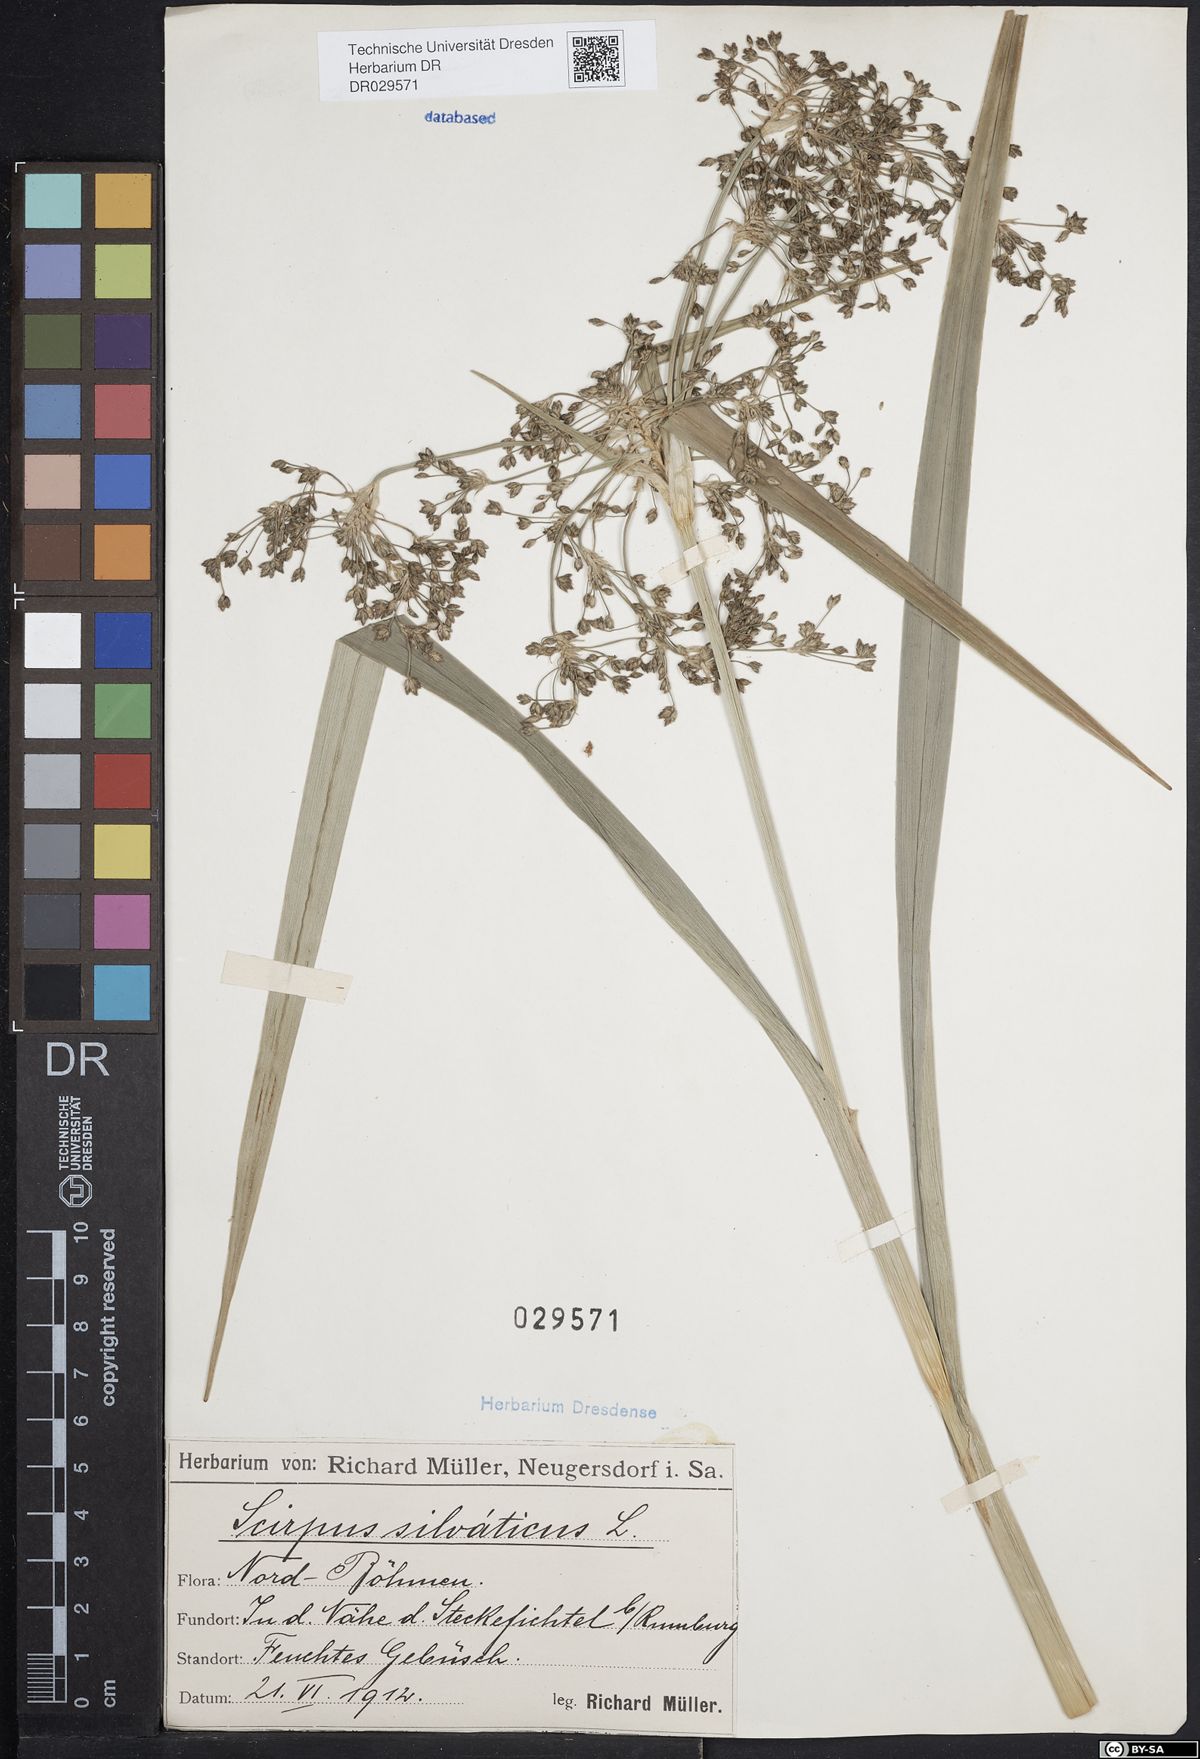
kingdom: Plantae
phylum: Tracheophyta
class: Liliopsida
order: Poales
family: Cyperaceae
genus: Scirpus
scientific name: Scirpus sylvaticus
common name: Wood club-rush
